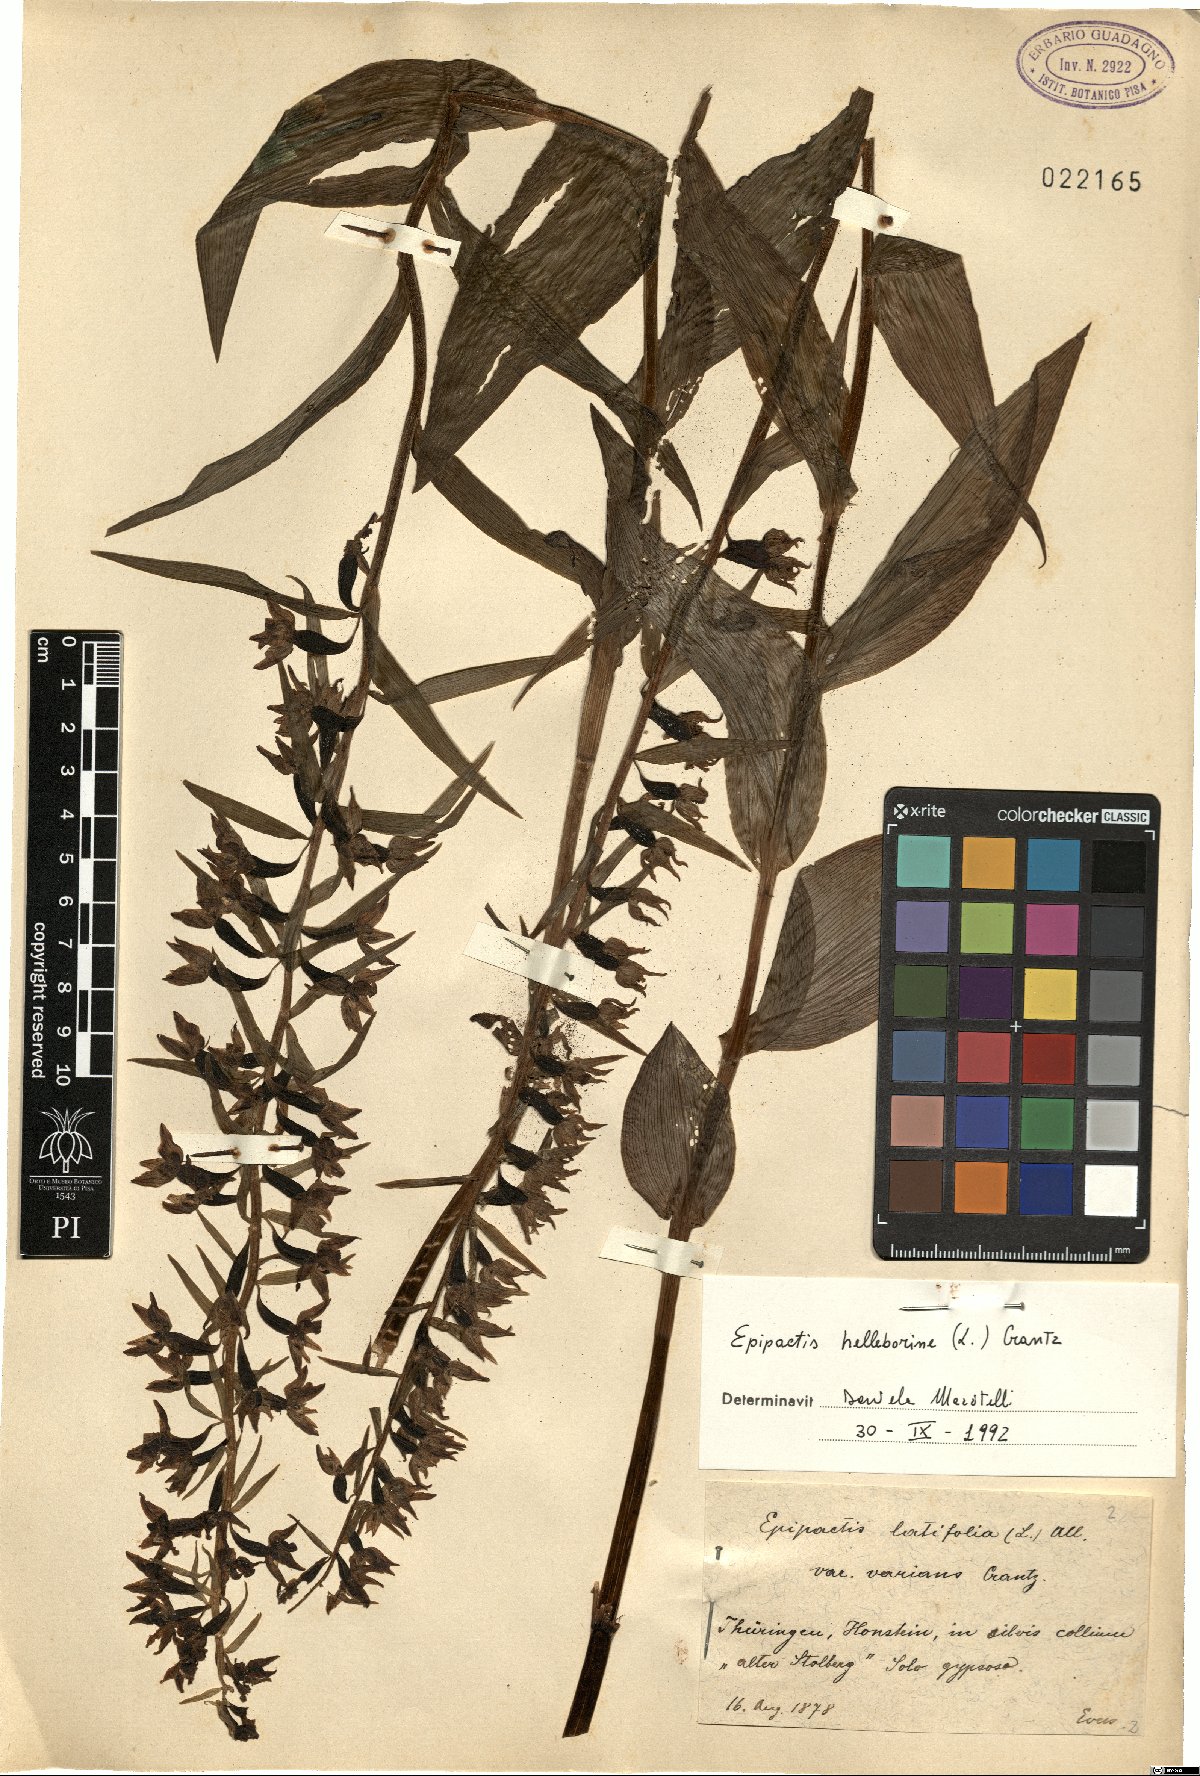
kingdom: Plantae
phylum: Tracheophyta
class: Liliopsida
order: Asparagales
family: Orchidaceae
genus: Epipactis
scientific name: Epipactis helleborine
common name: Broad-leaved helleborine
